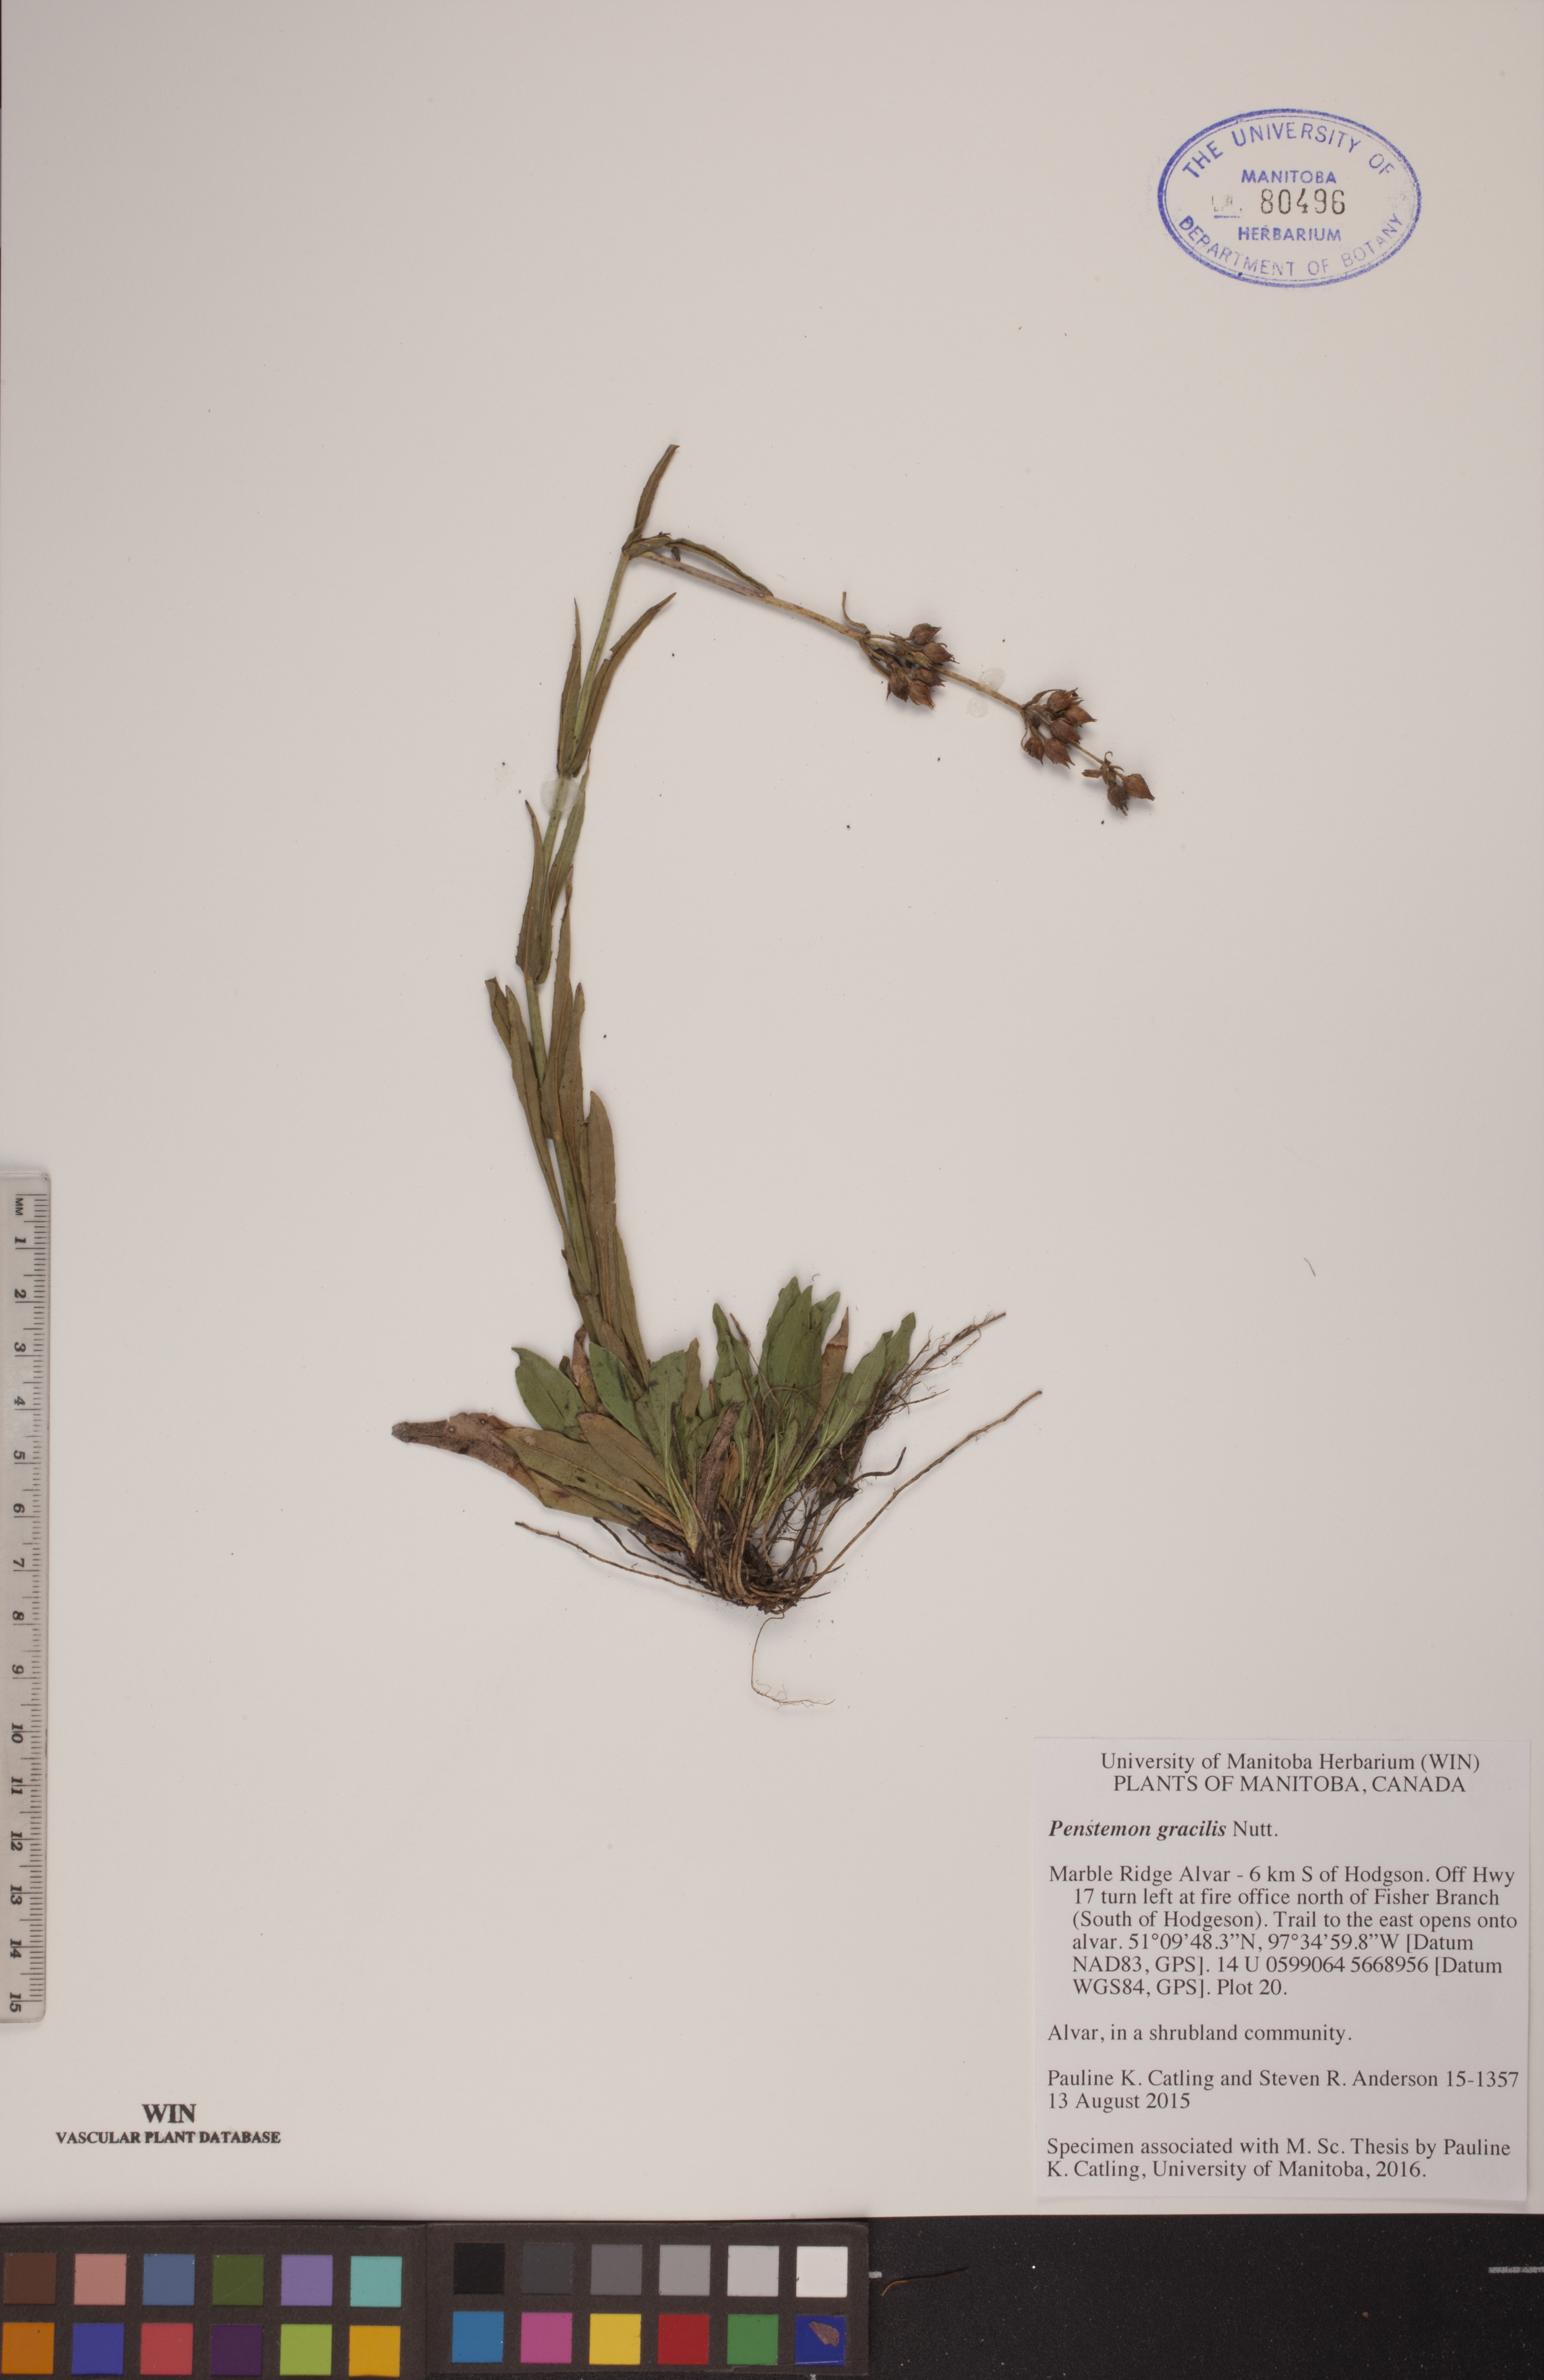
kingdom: Plantae
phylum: Tracheophyta
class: Magnoliopsida
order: Lamiales
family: Plantaginaceae
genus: Penstemon
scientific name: Penstemon gracilis
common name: Slender beardtongue
